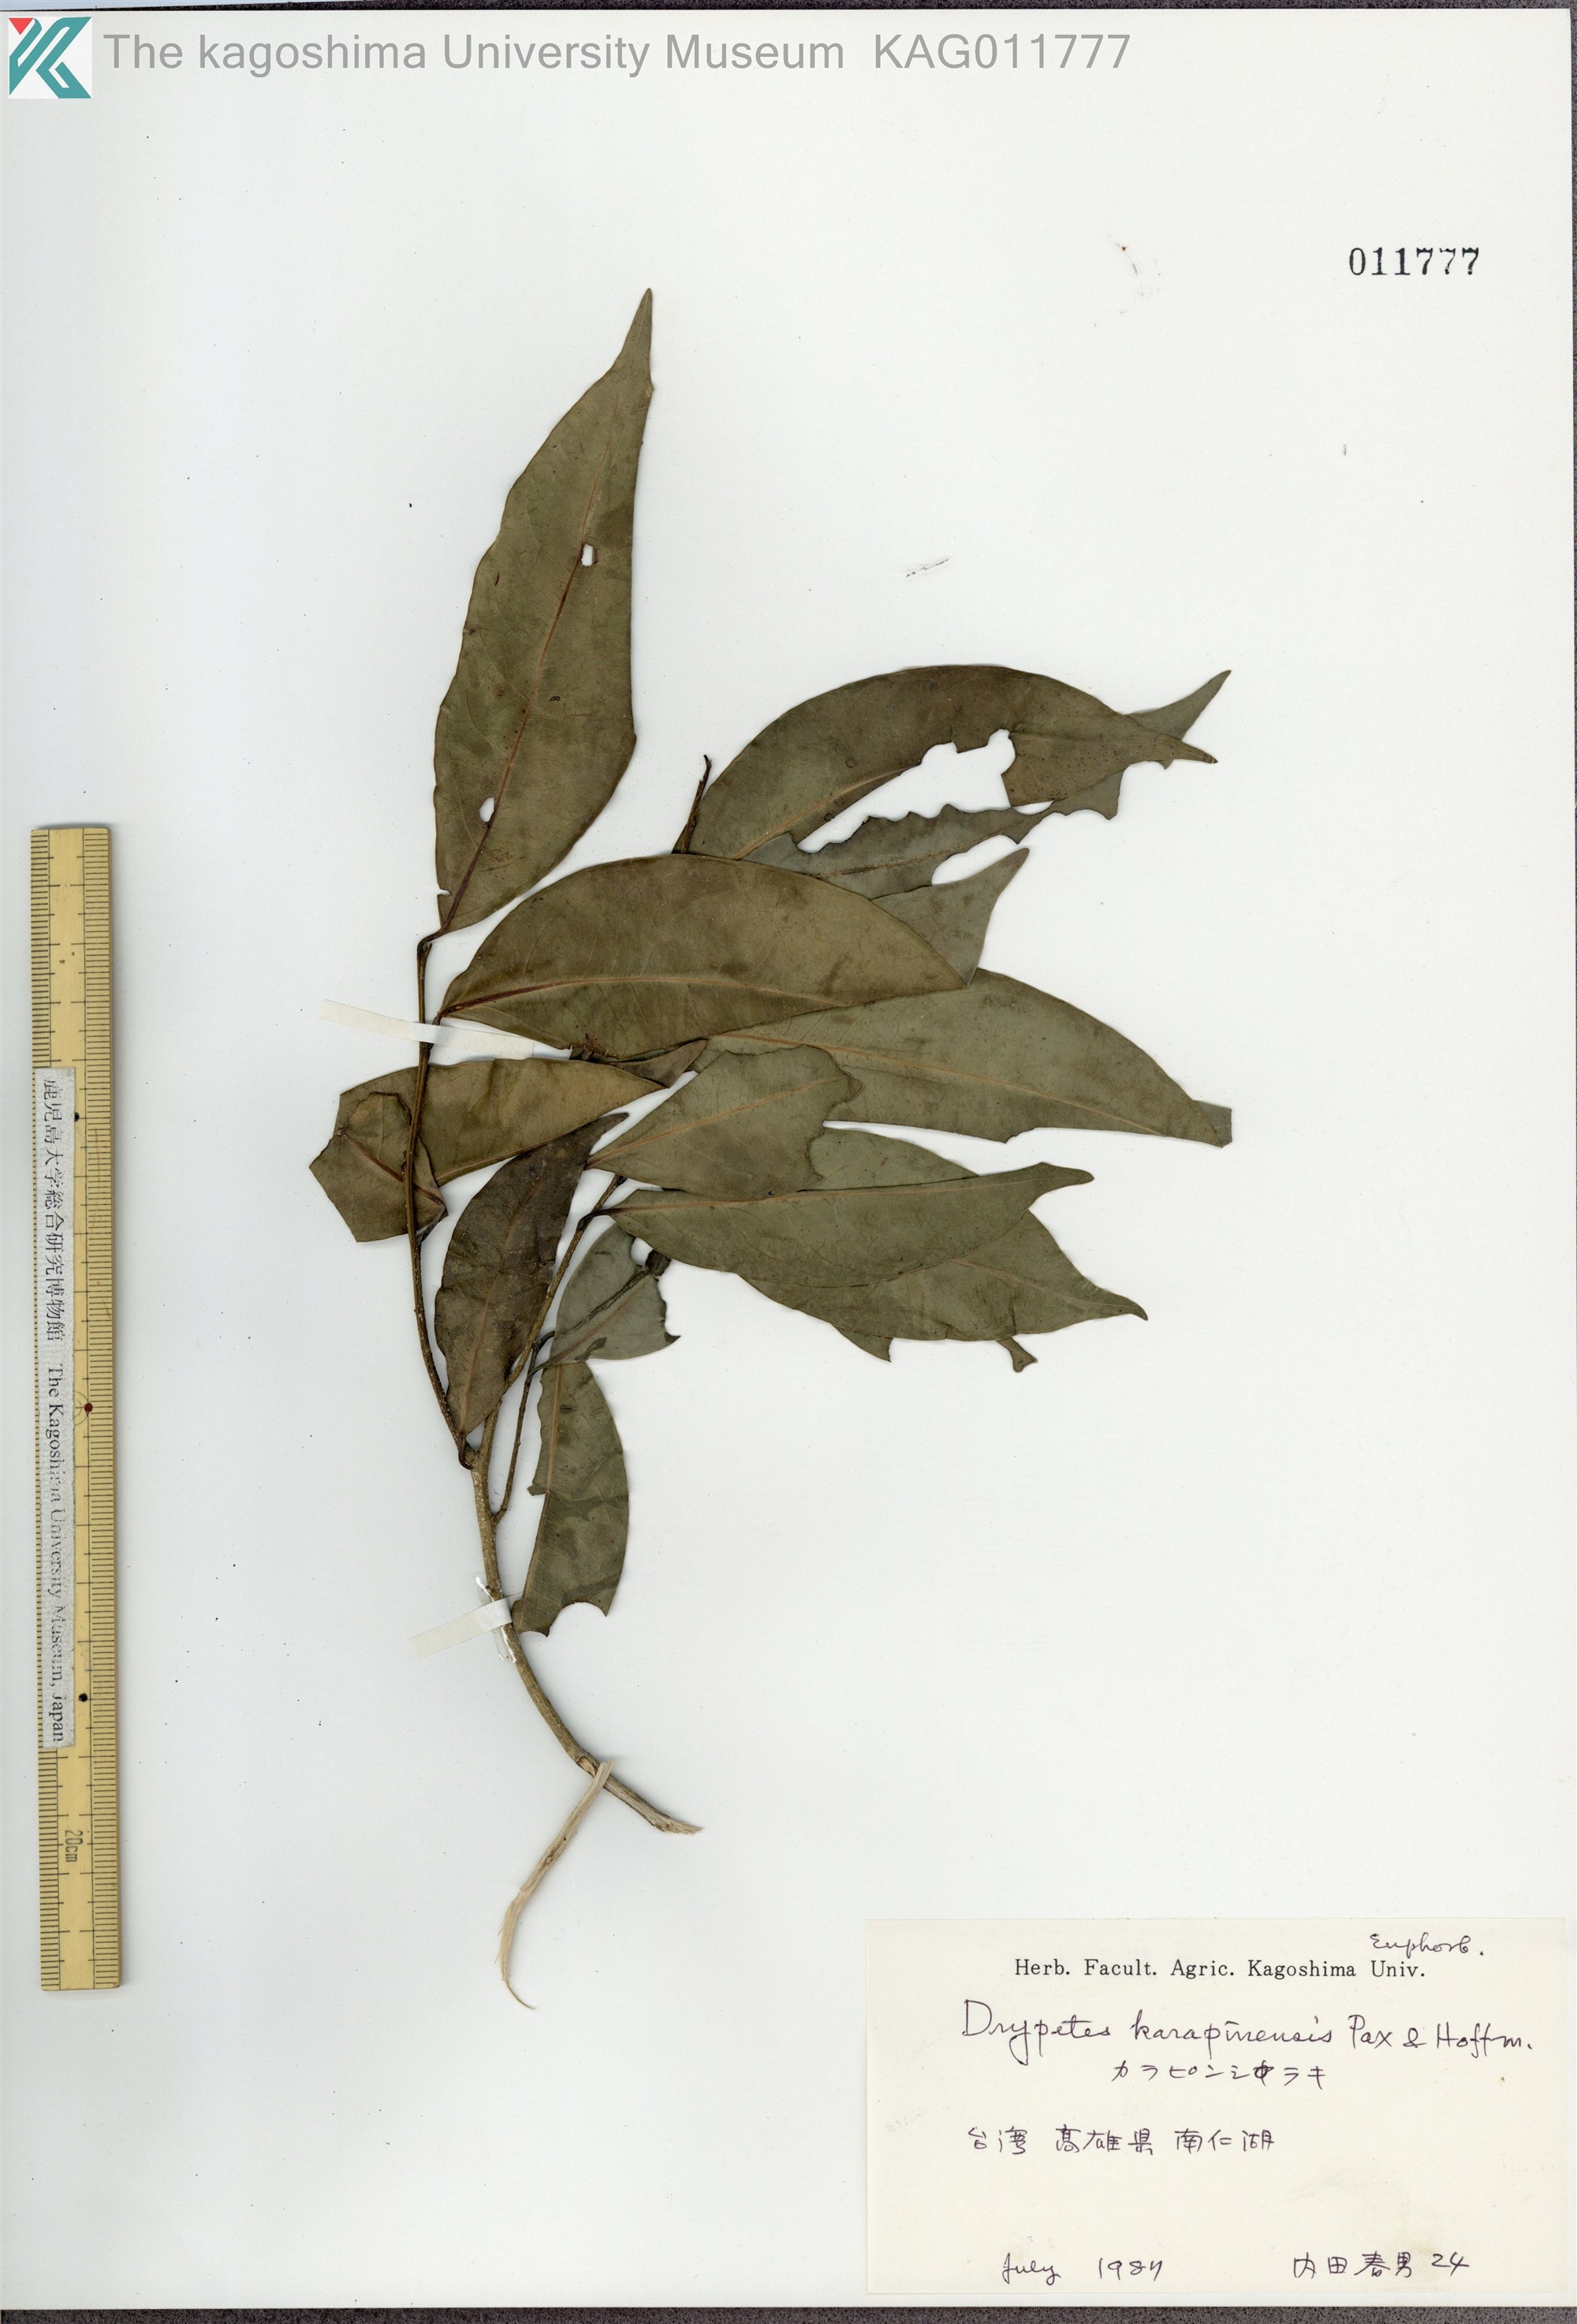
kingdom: Plantae
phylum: Tracheophyta
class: Magnoliopsida
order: Malpighiales
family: Putranjivaceae
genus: Drypetes
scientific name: Drypetes indica
